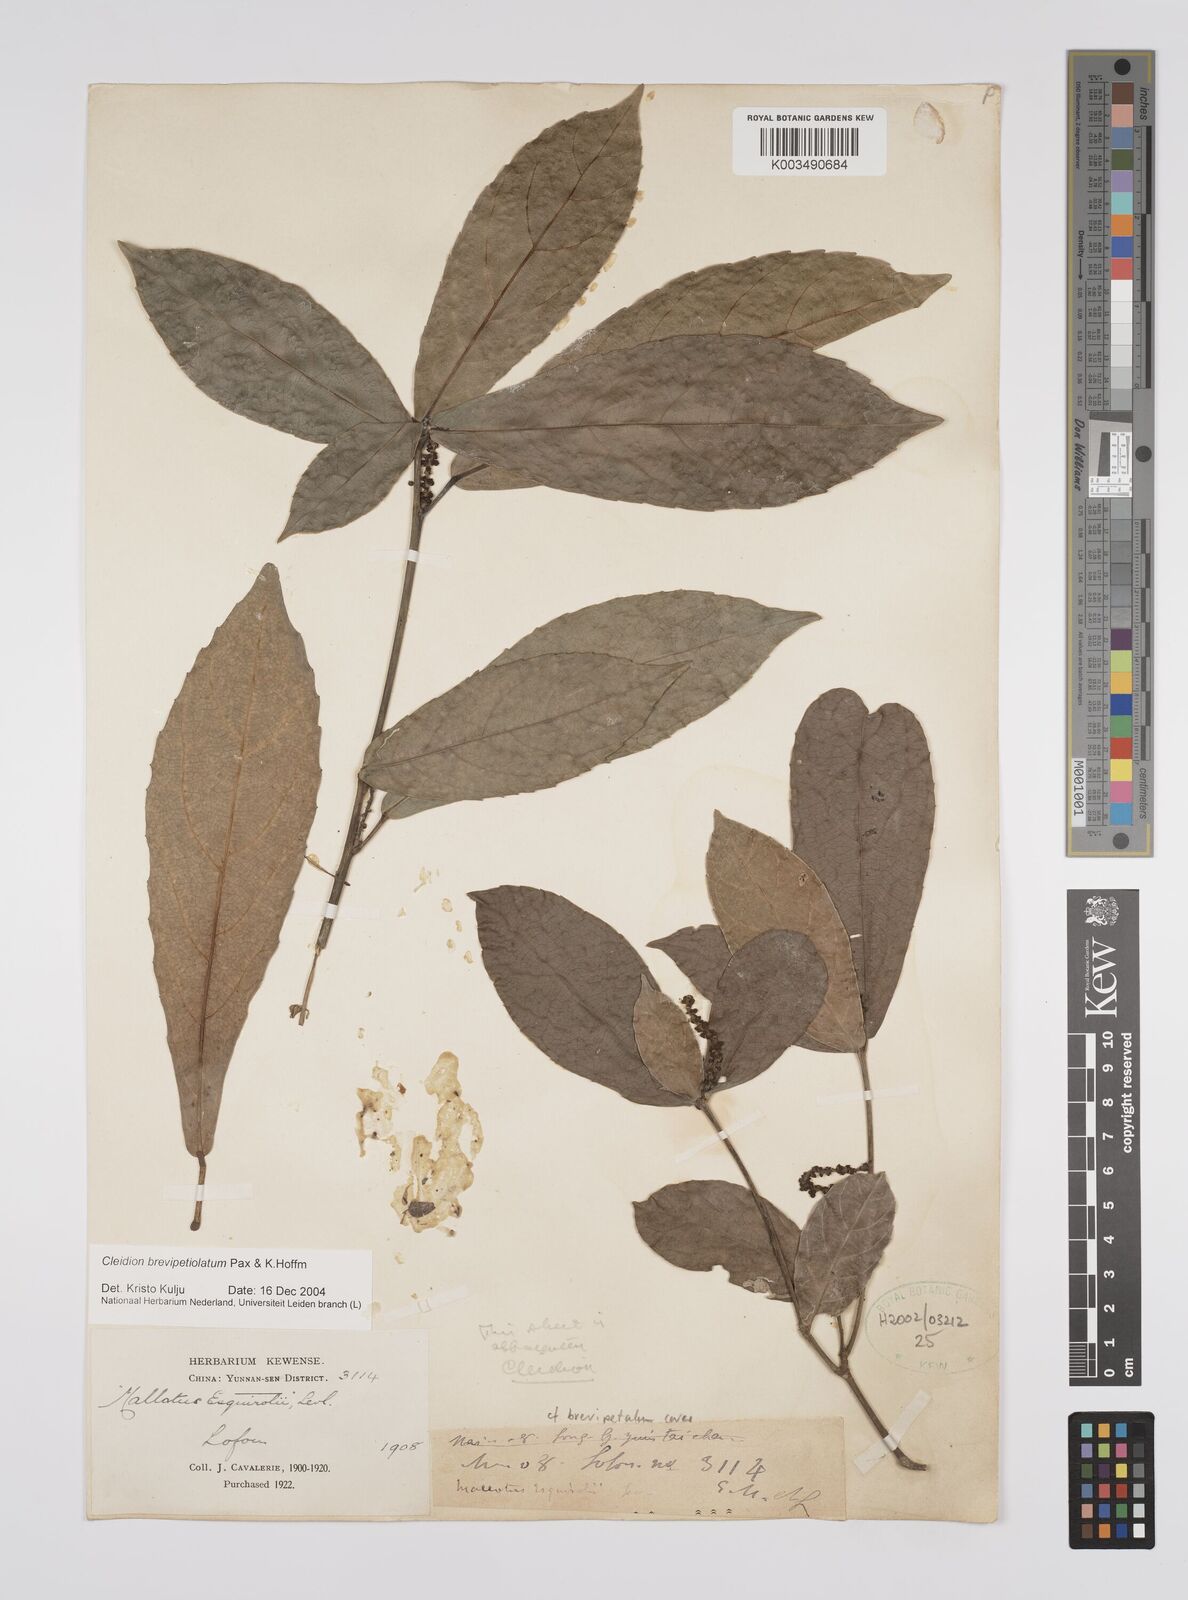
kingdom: Plantae
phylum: Tracheophyta
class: Magnoliopsida
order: Malpighiales
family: Euphorbiaceae
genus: Cleidion
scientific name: Cleidion brevipetiolatum
